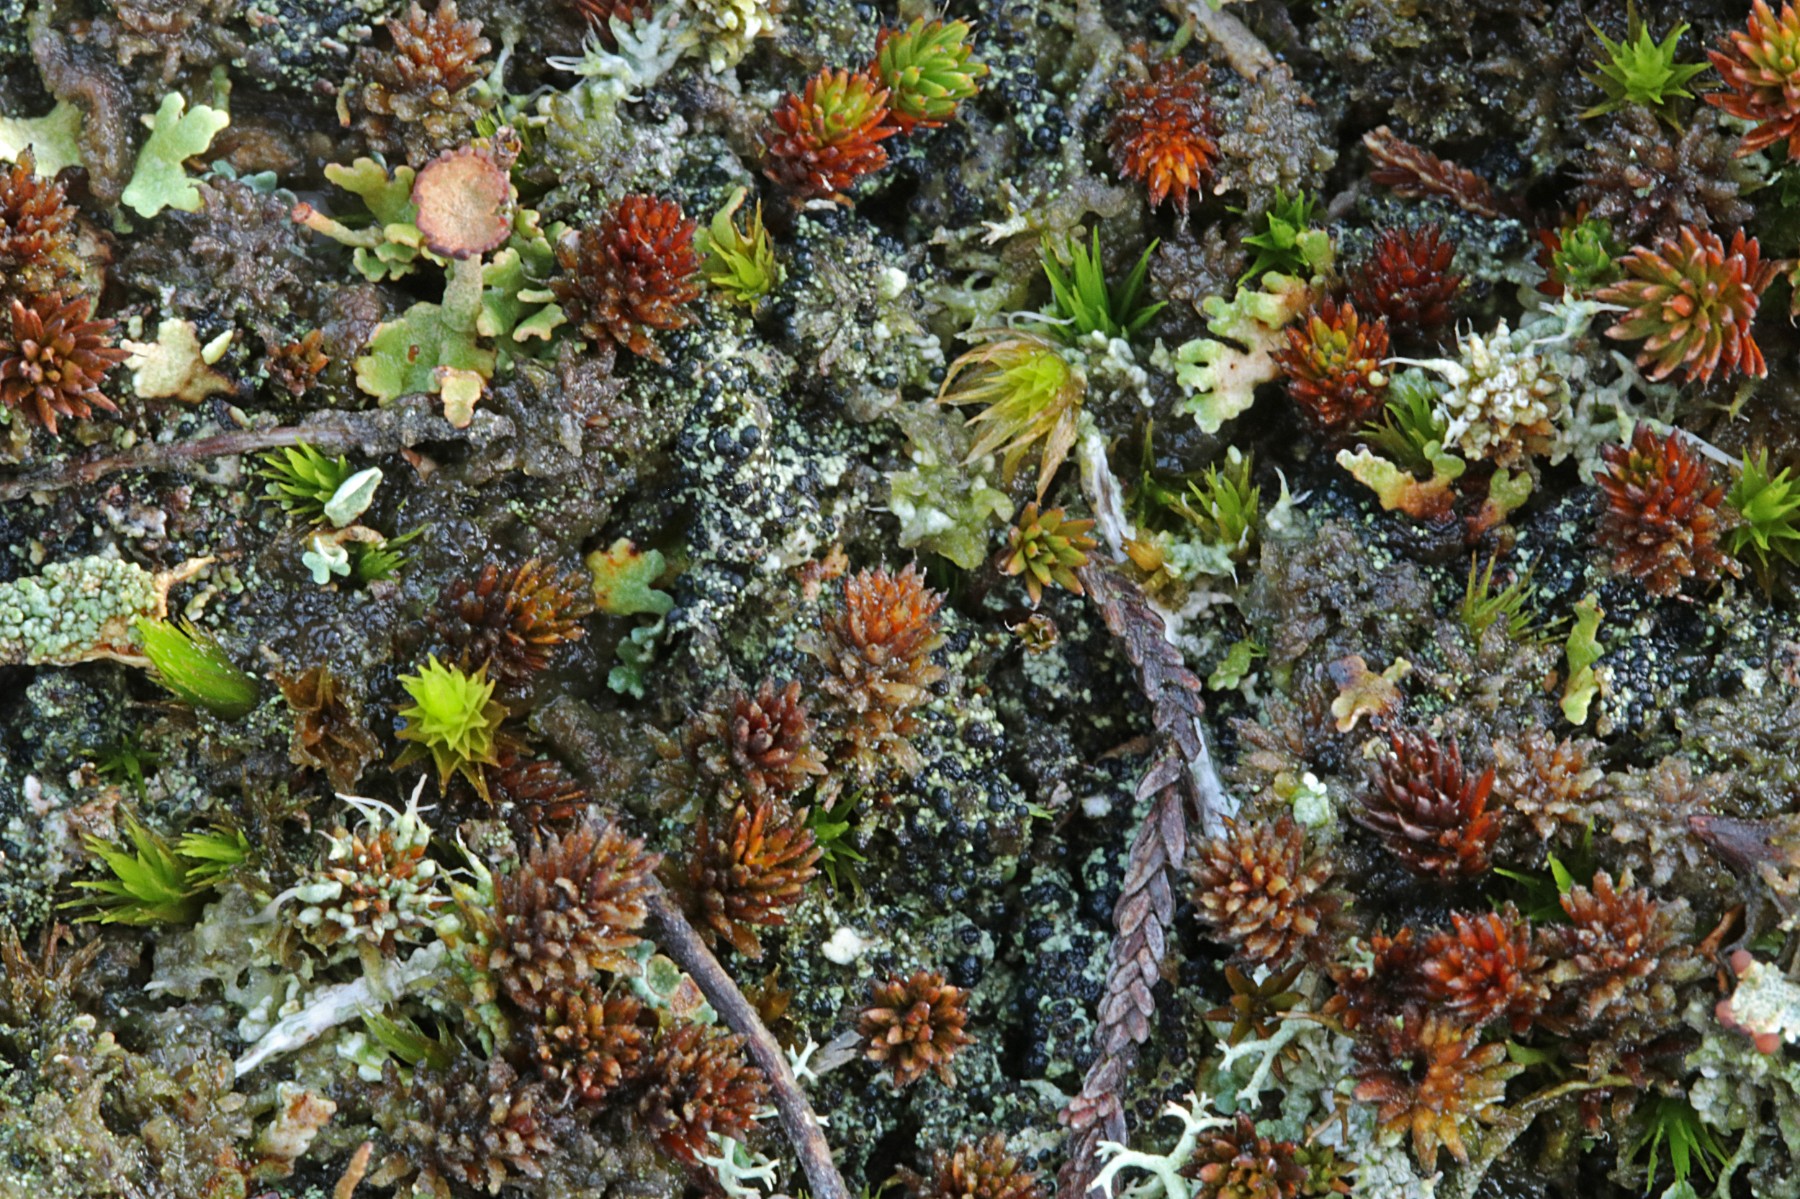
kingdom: Fungi
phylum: Ascomycota
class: Lecanoromycetes
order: Lecanorales
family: Byssolomataceae
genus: Micarea
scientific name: Micarea lignaria
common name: tørve-knaplav
